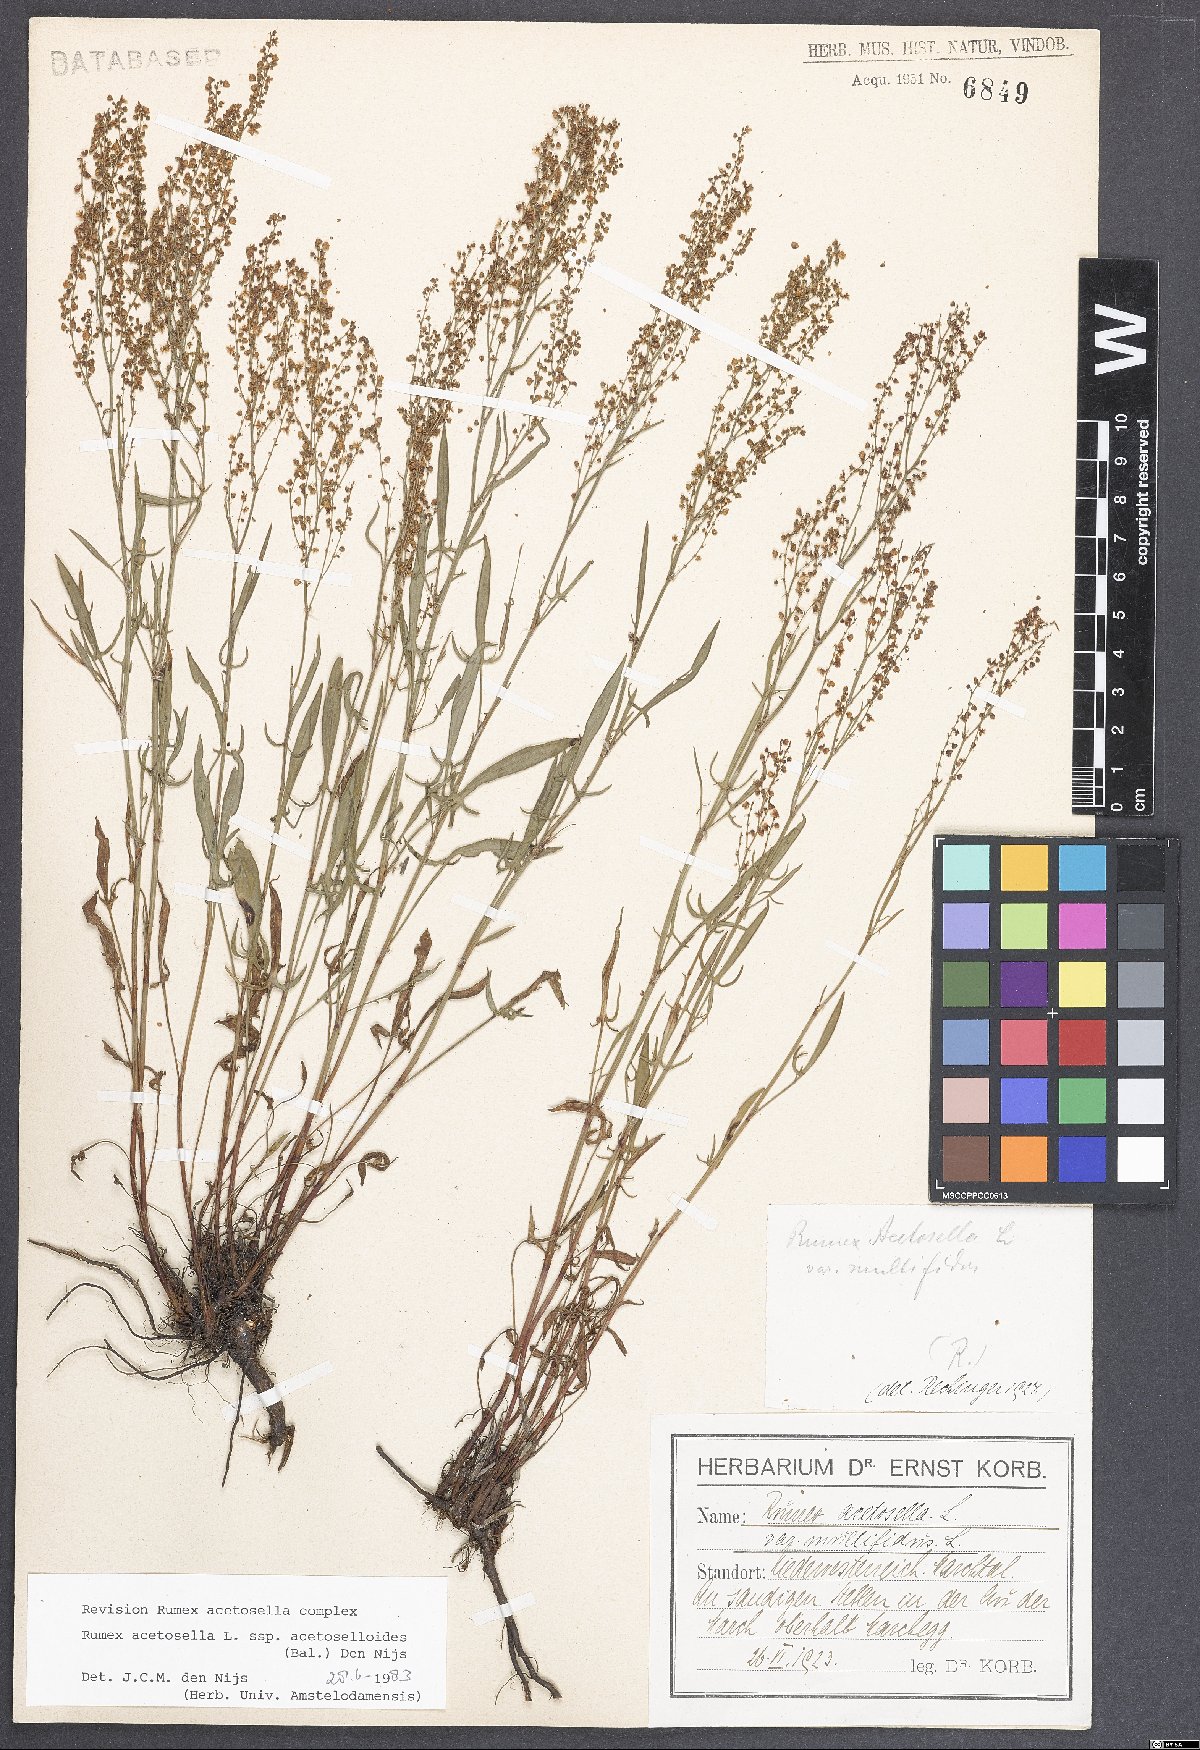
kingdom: Plantae
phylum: Tracheophyta
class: Magnoliopsida
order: Caryophyllales
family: Polygonaceae
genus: Rumex
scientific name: Rumex acetosella
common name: Common sheep sorrel
